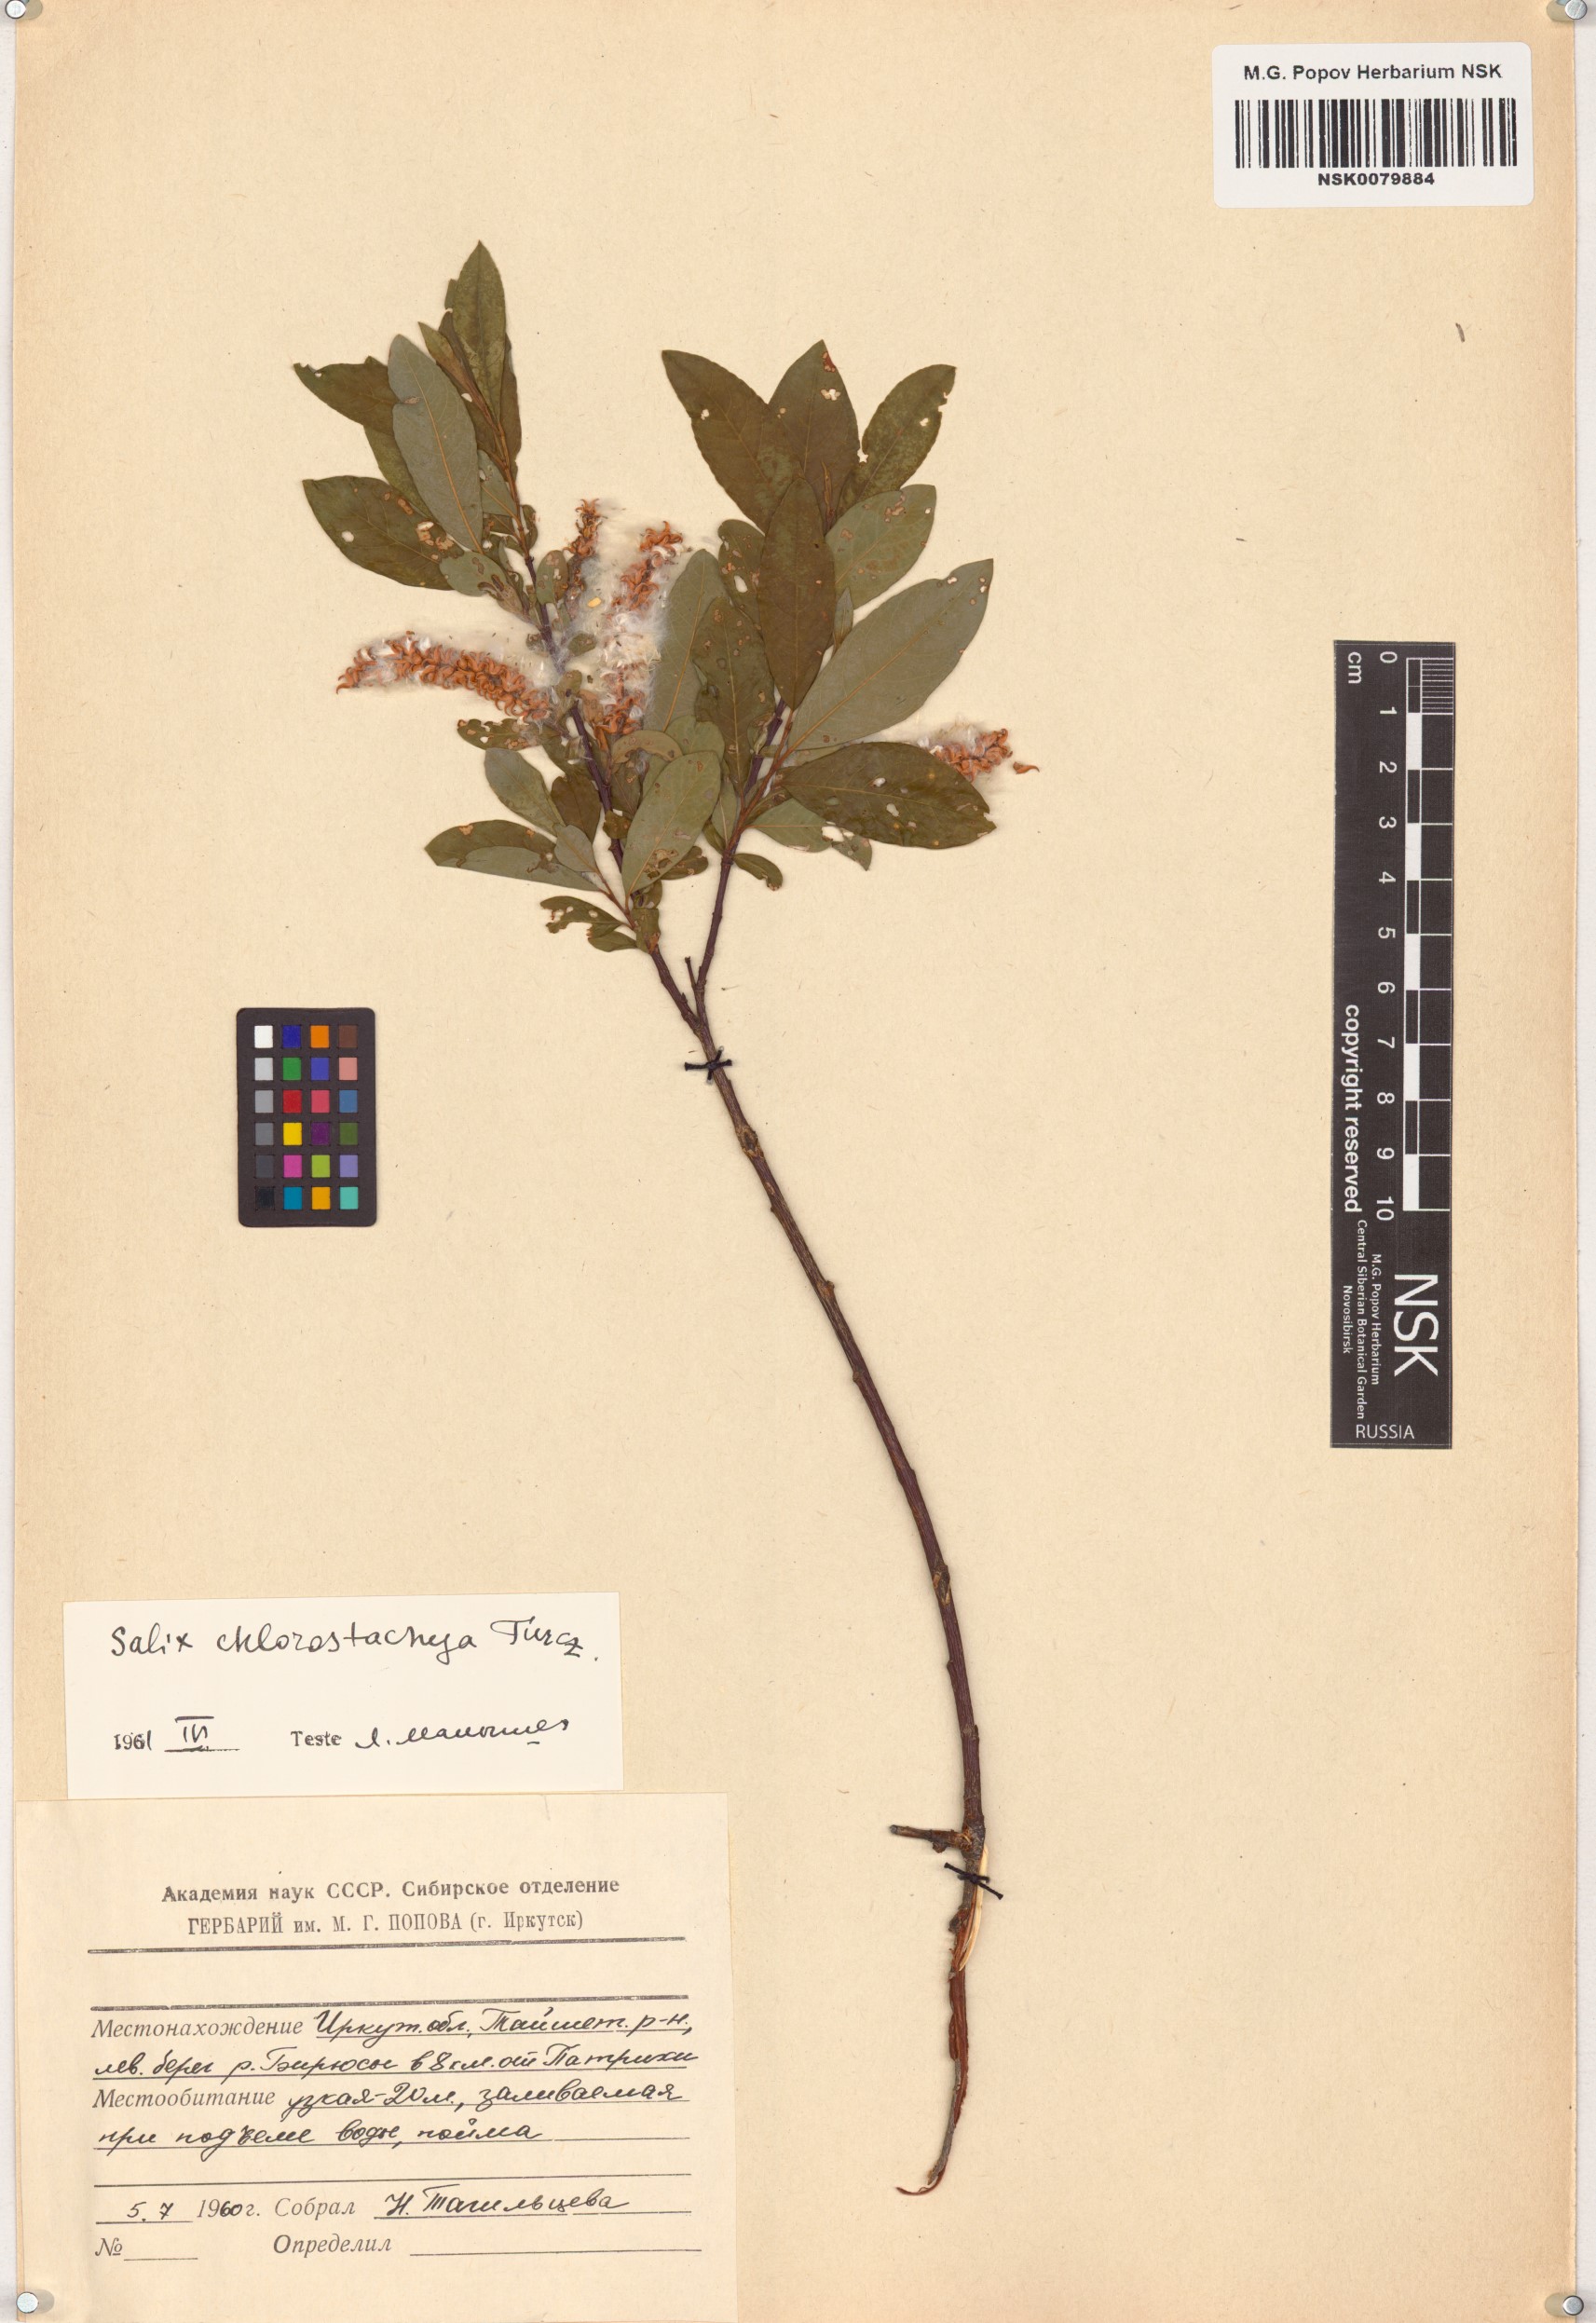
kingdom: Plantae
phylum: Tracheophyta
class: Magnoliopsida
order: Malpighiales
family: Salicaceae
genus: Salix
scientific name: Salix rhamnifolia
